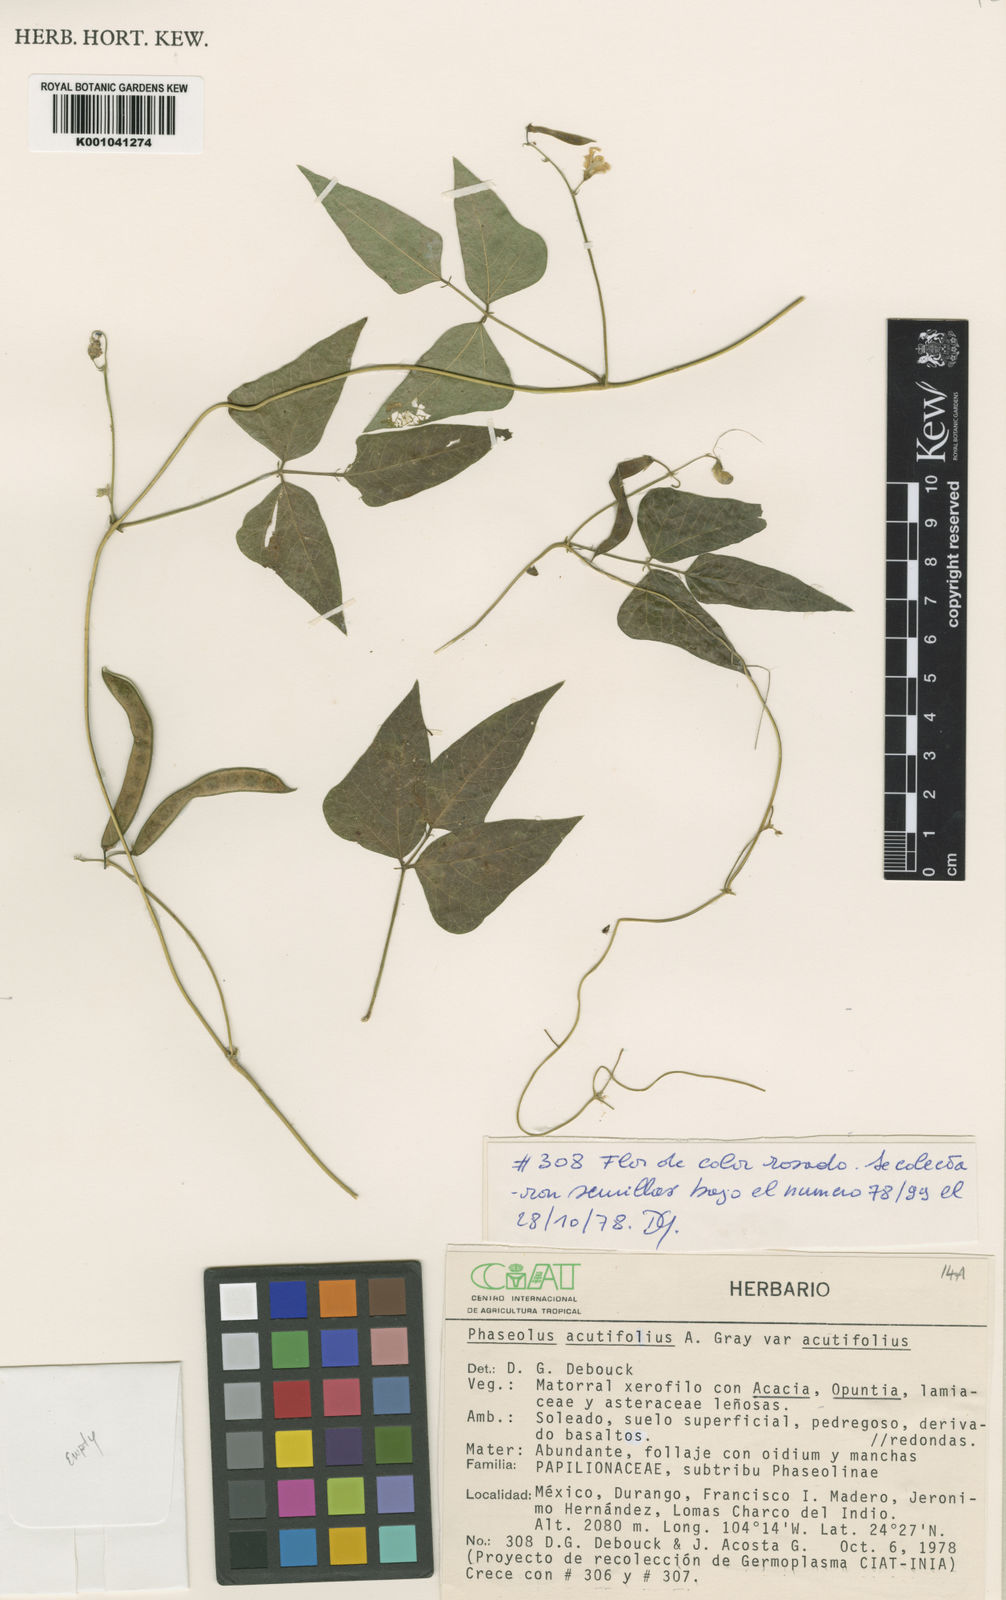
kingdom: Plantae
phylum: Tracheophyta
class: Magnoliopsida
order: Fabales
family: Fabaceae
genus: Phaseolus
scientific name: Phaseolus acutifolius
